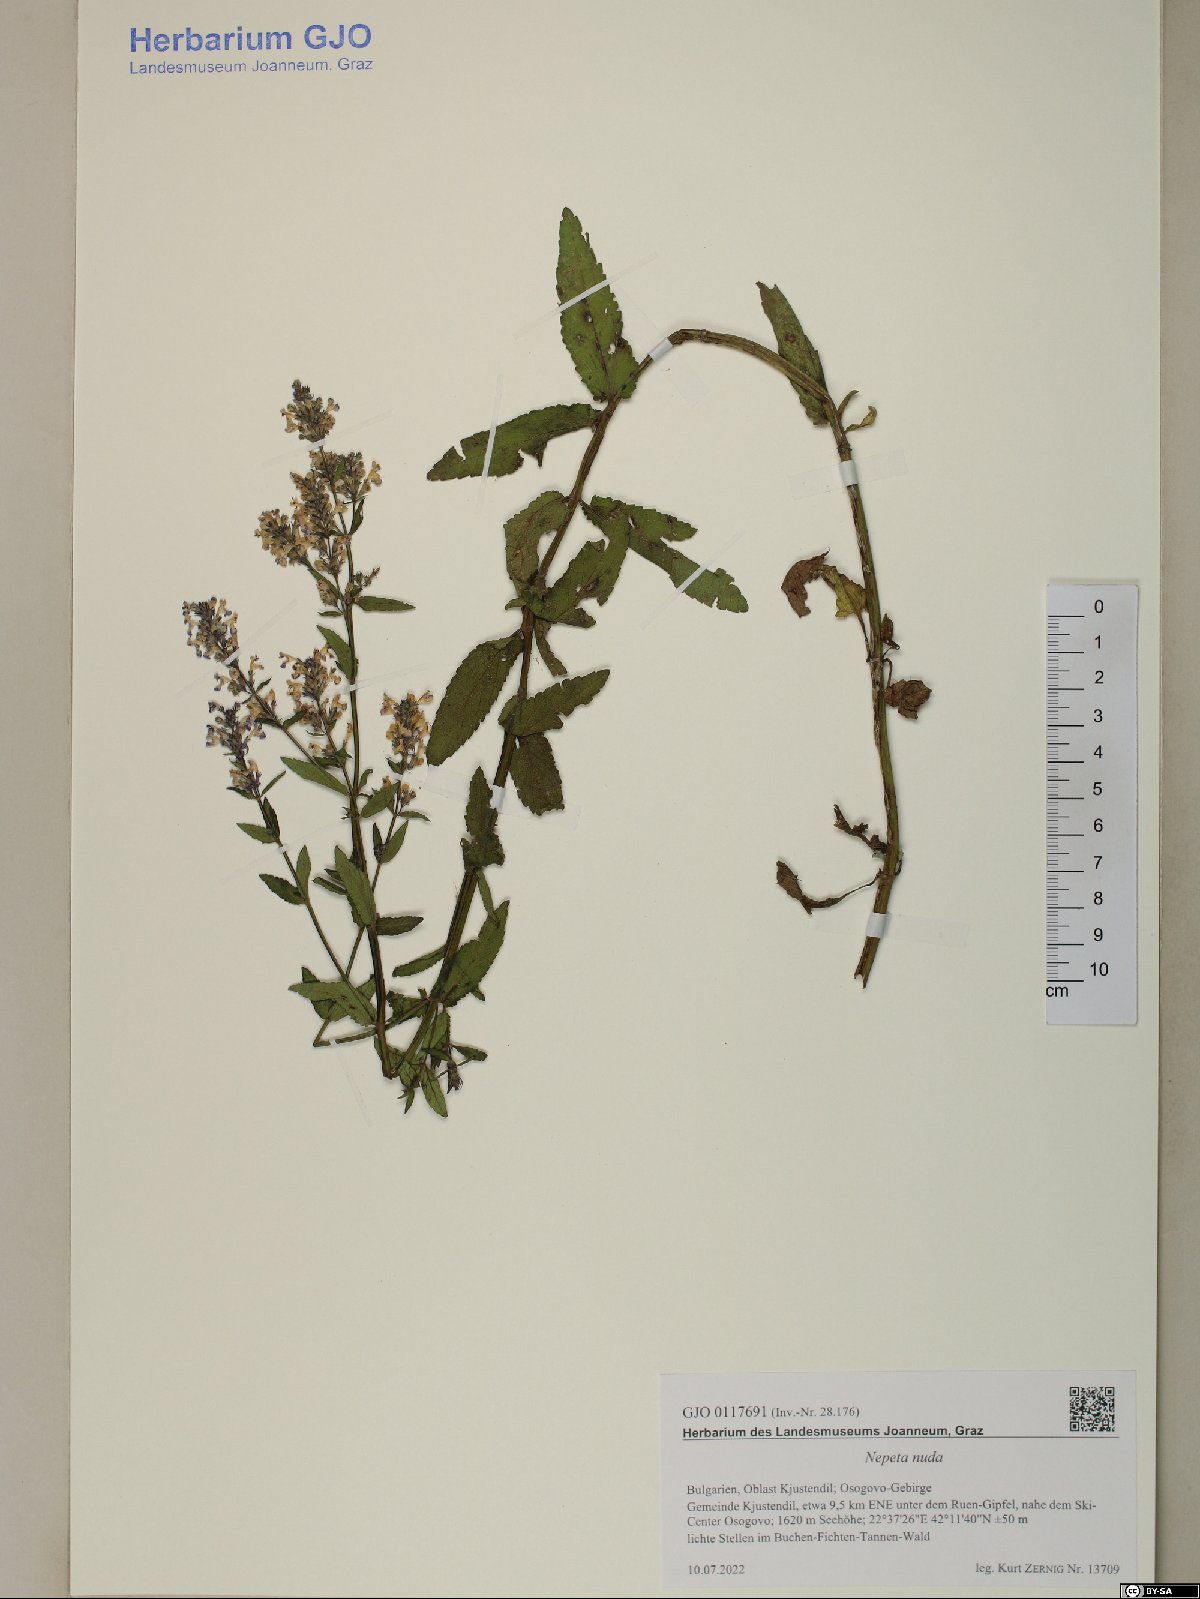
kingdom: Plantae
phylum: Tracheophyta
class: Magnoliopsida
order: Lamiales
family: Lamiaceae
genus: Nepeta
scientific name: Nepeta nuda
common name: Hairless catmint
